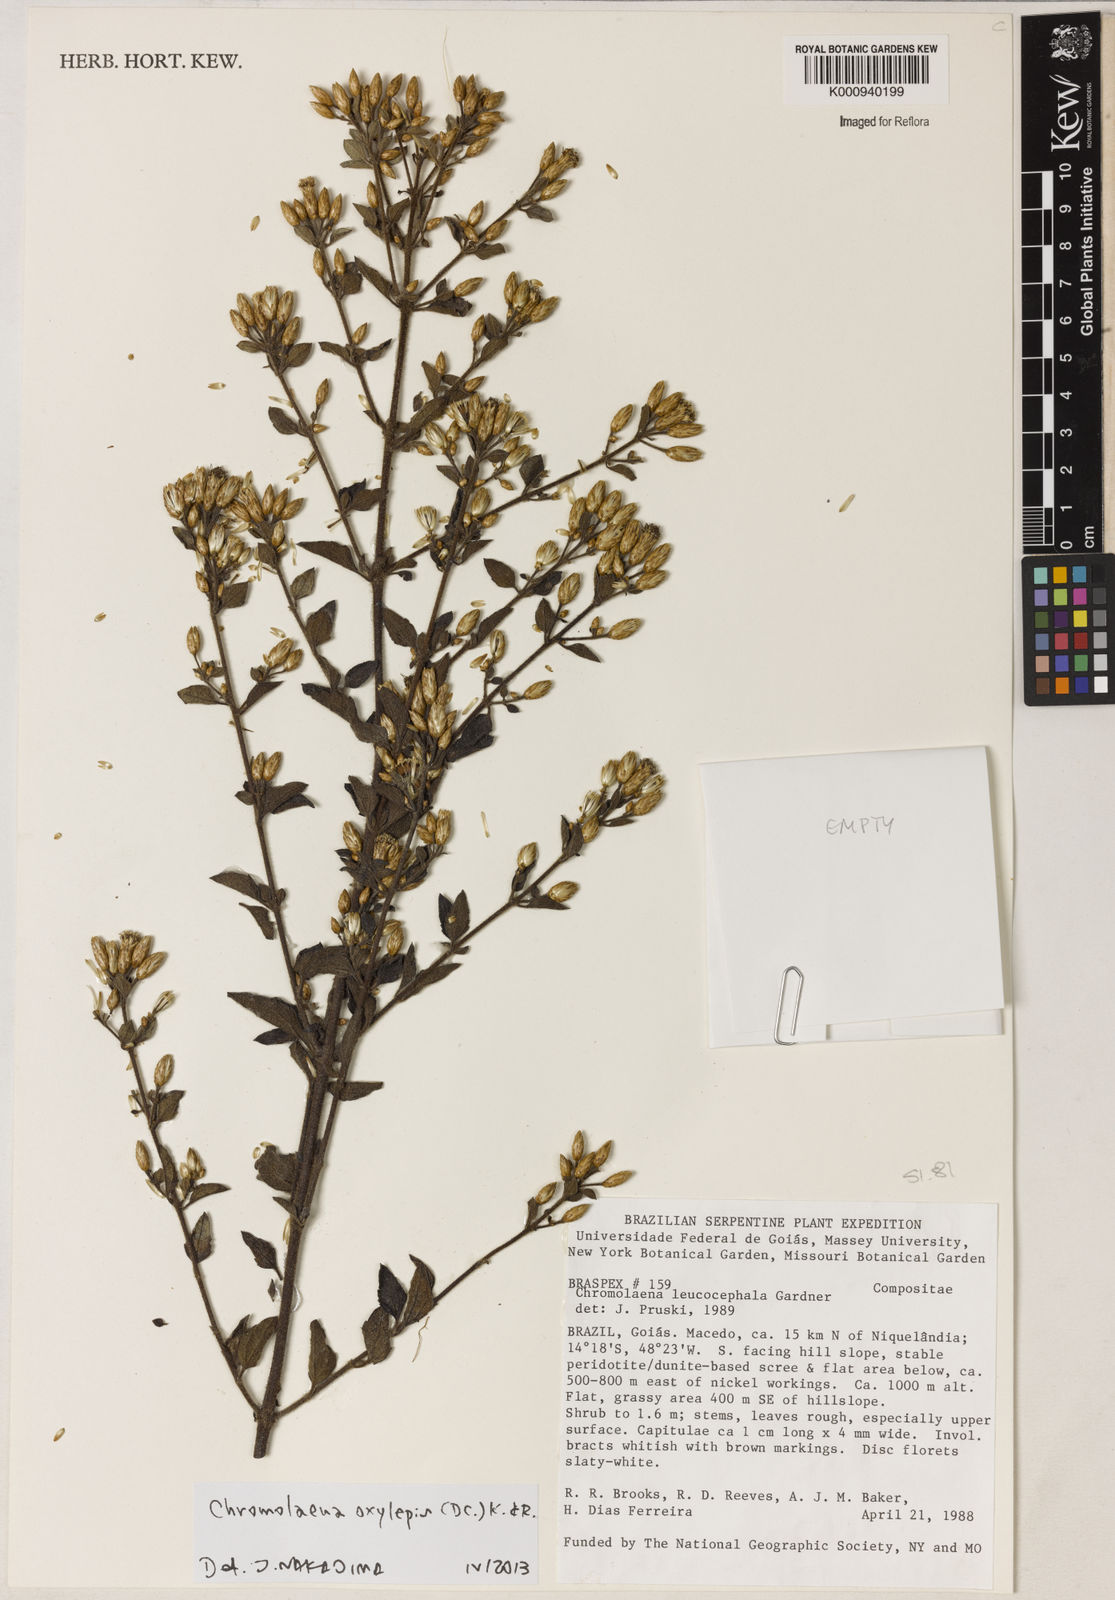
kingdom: Plantae
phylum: Tracheophyta
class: Magnoliopsida
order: Asterales
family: Asteraceae
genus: Chromolaena
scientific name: Chromolaena oxylepis
